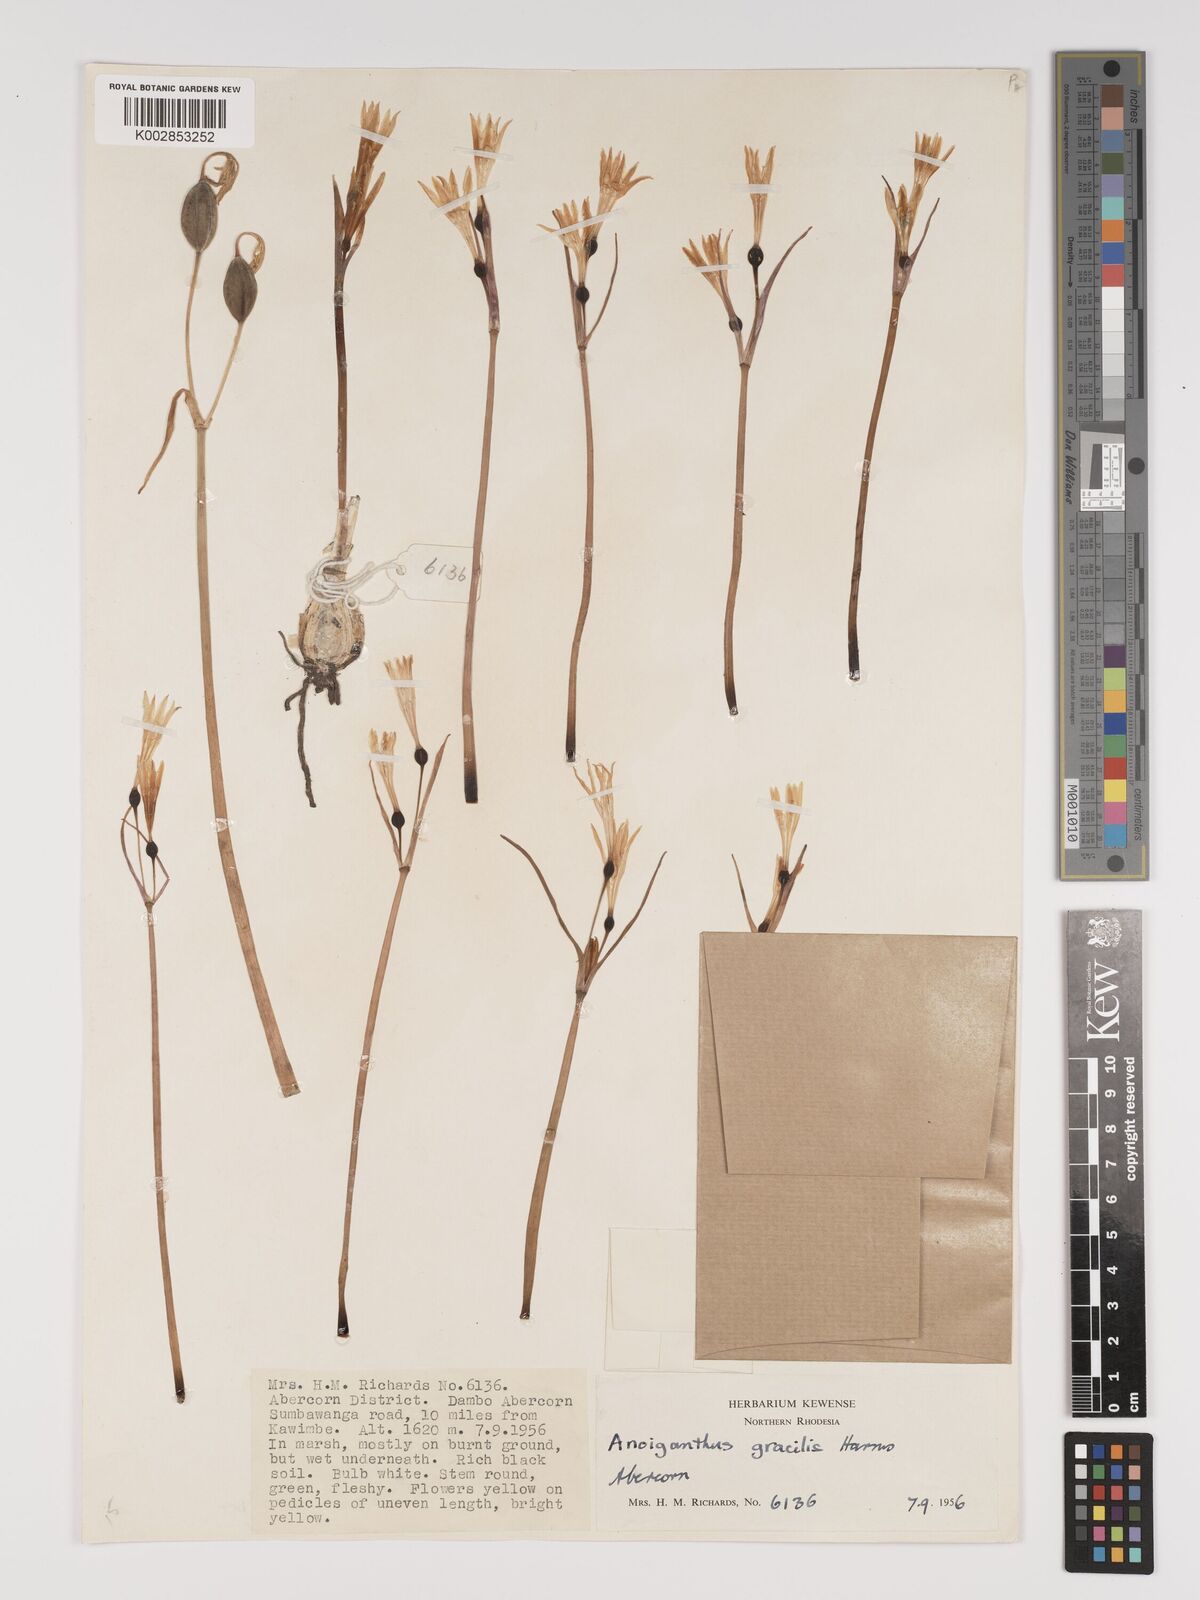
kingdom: Plantae
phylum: Tracheophyta
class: Liliopsida
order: Asparagales
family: Amaryllidaceae
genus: Cyrtanthus
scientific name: Cyrtanthus breviflorus
